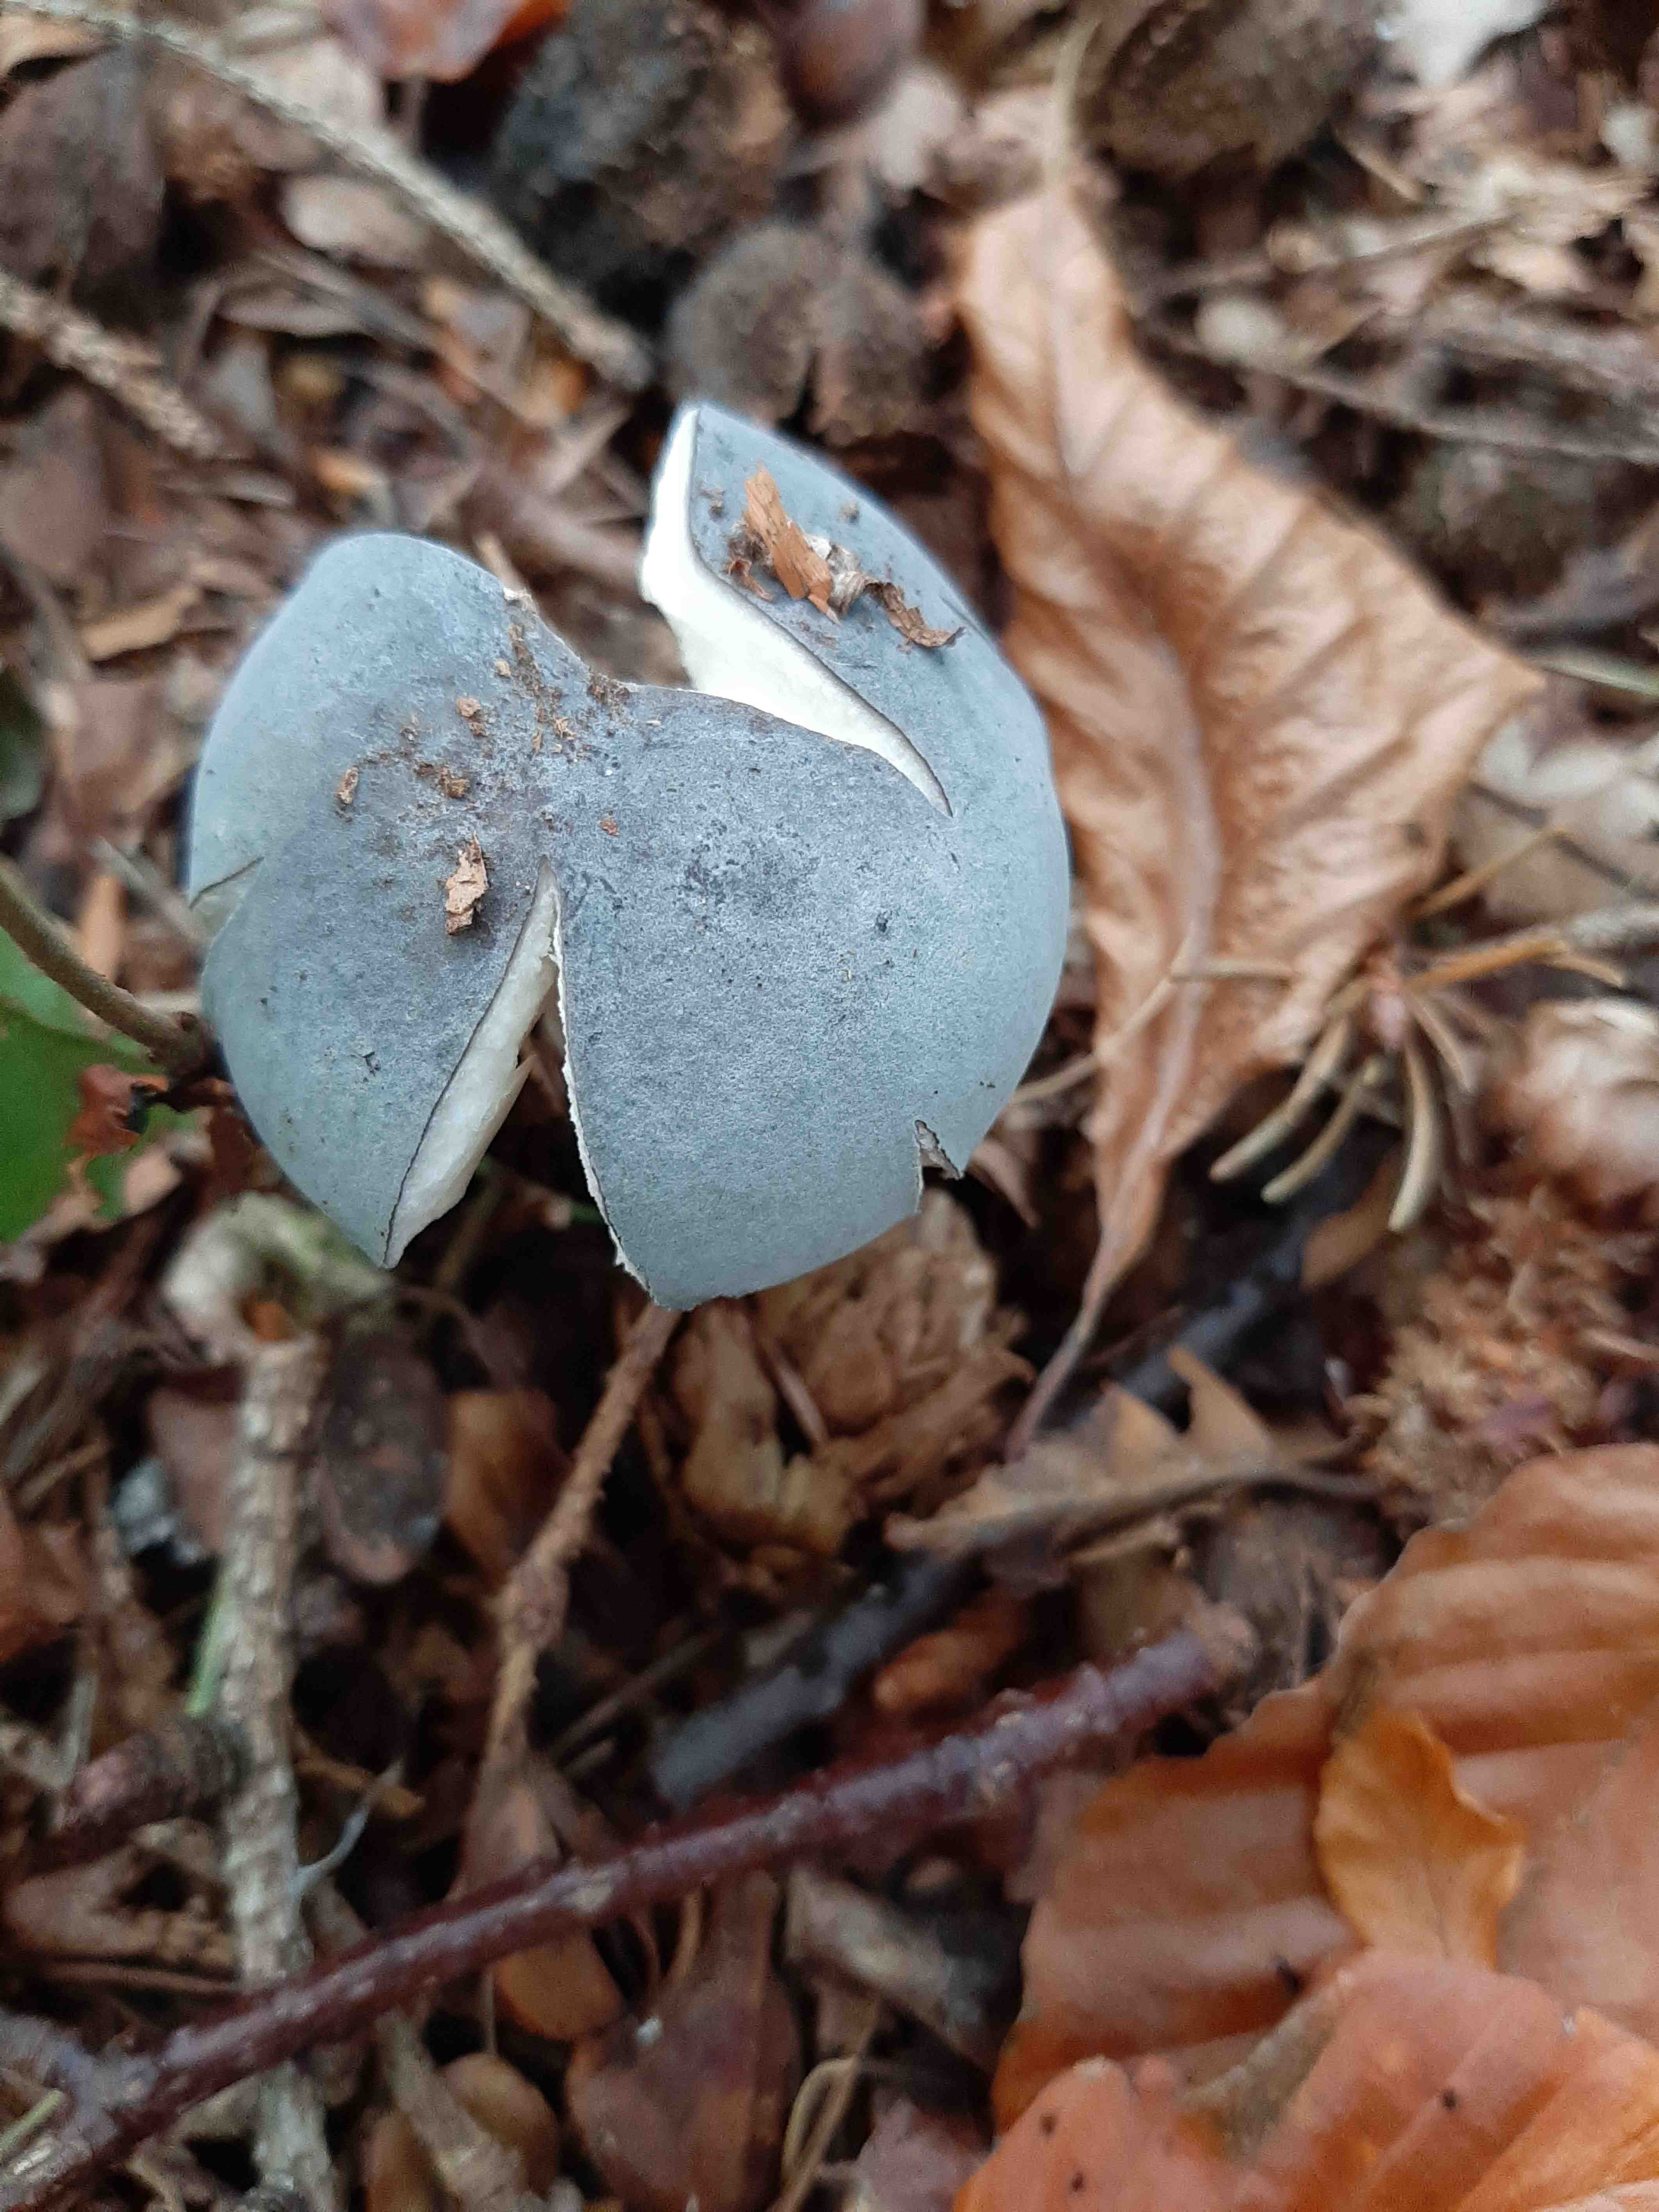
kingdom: Fungi
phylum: Basidiomycota
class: Agaricomycetes
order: Russulales
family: Russulaceae
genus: Russula
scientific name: Russula parazurea
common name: blågrå skørhat
